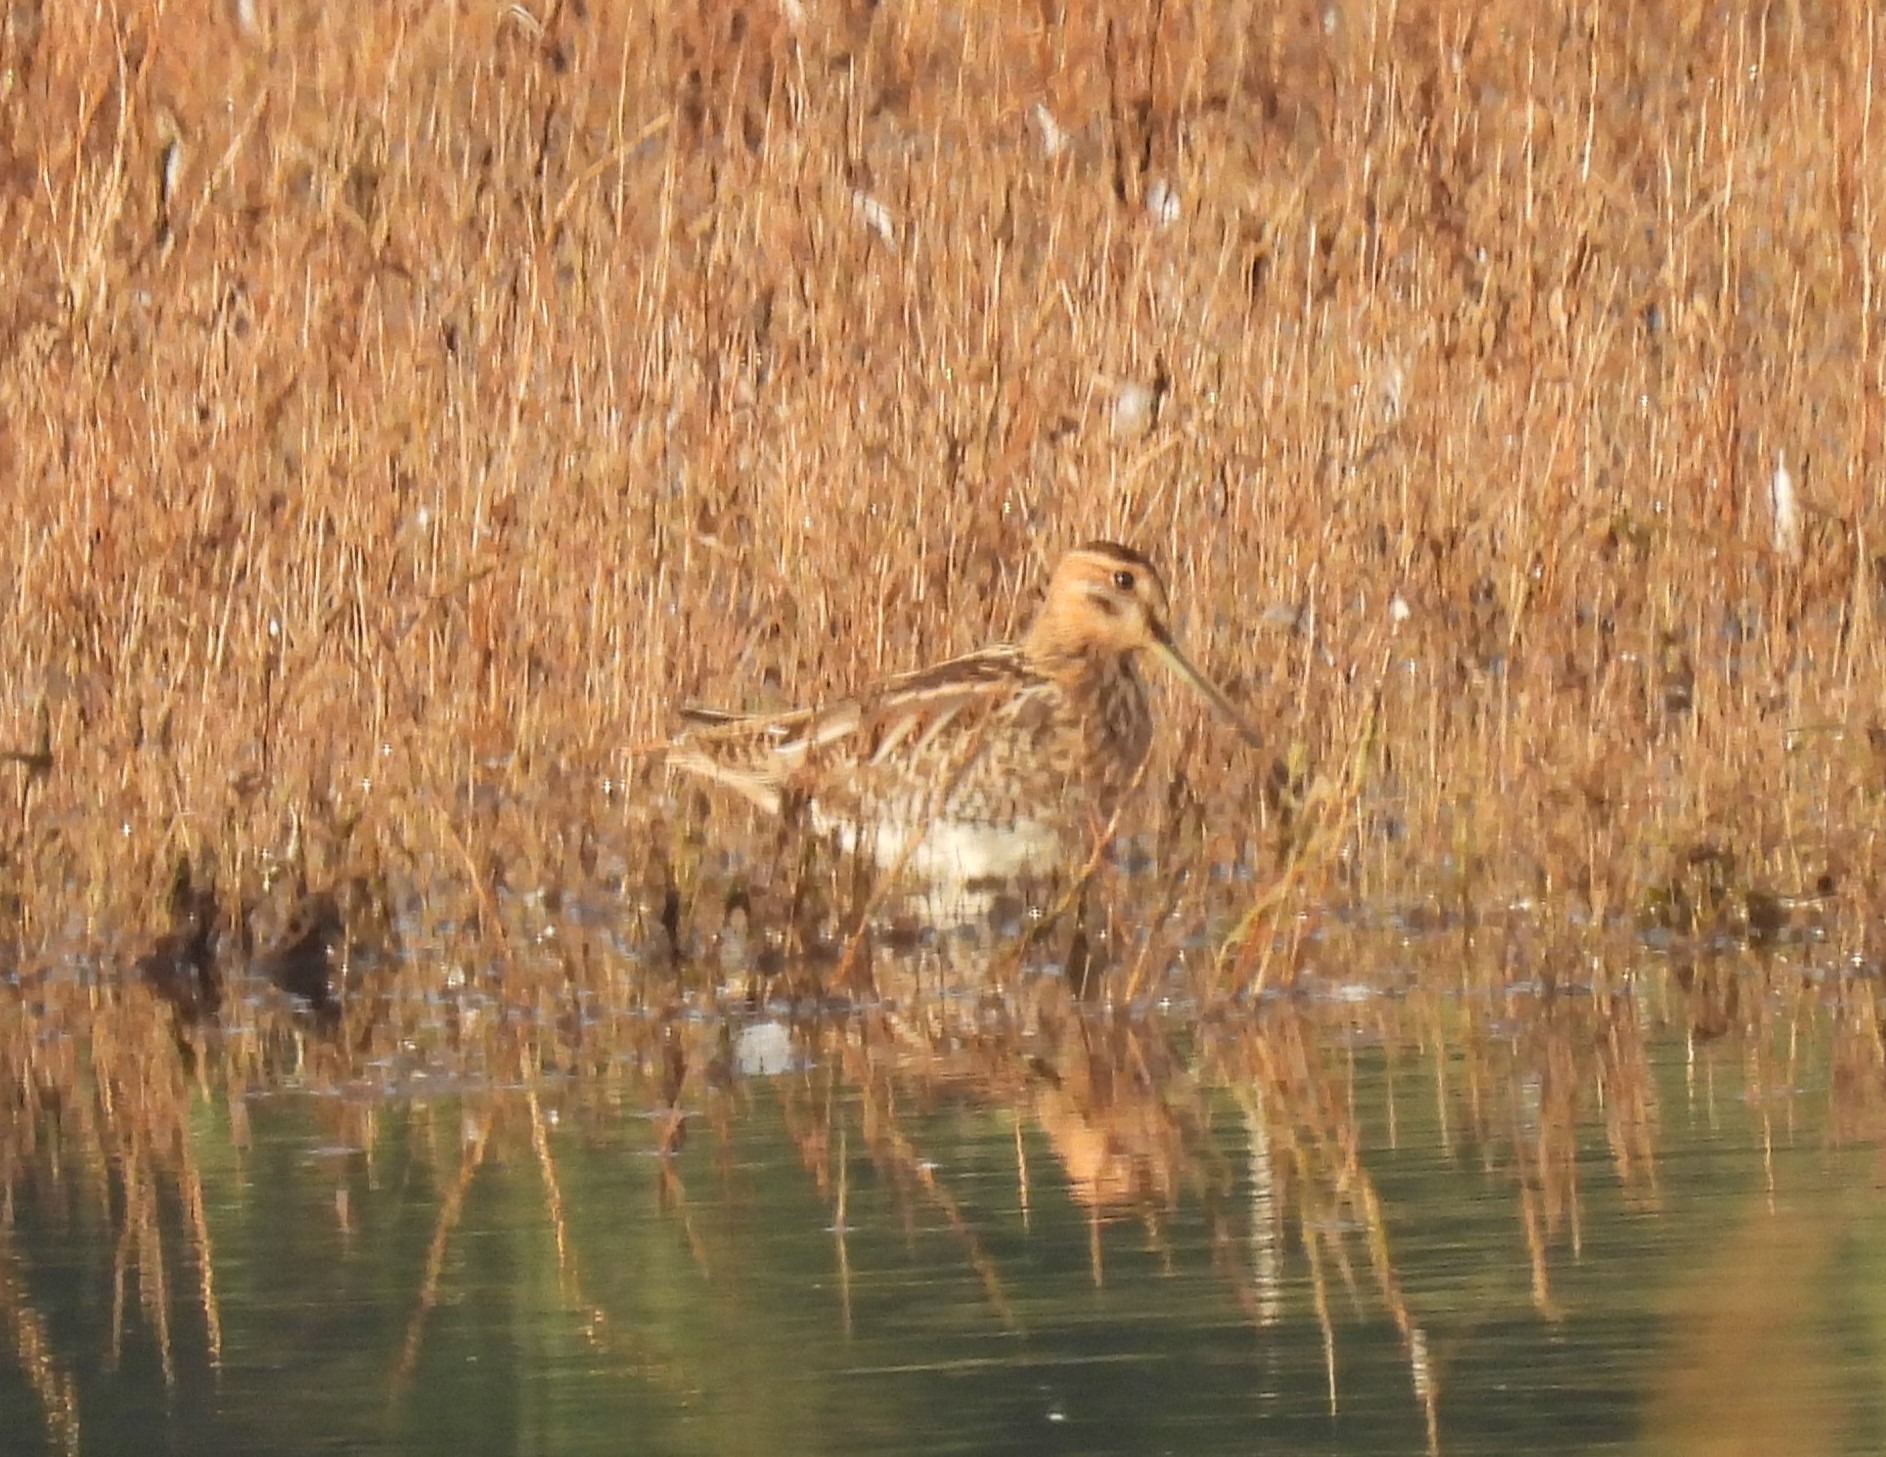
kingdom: Animalia
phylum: Chordata
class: Aves
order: Charadriiformes
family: Scolopacidae
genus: Gallinago
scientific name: Gallinago gallinago
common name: Dobbeltbekkasin
